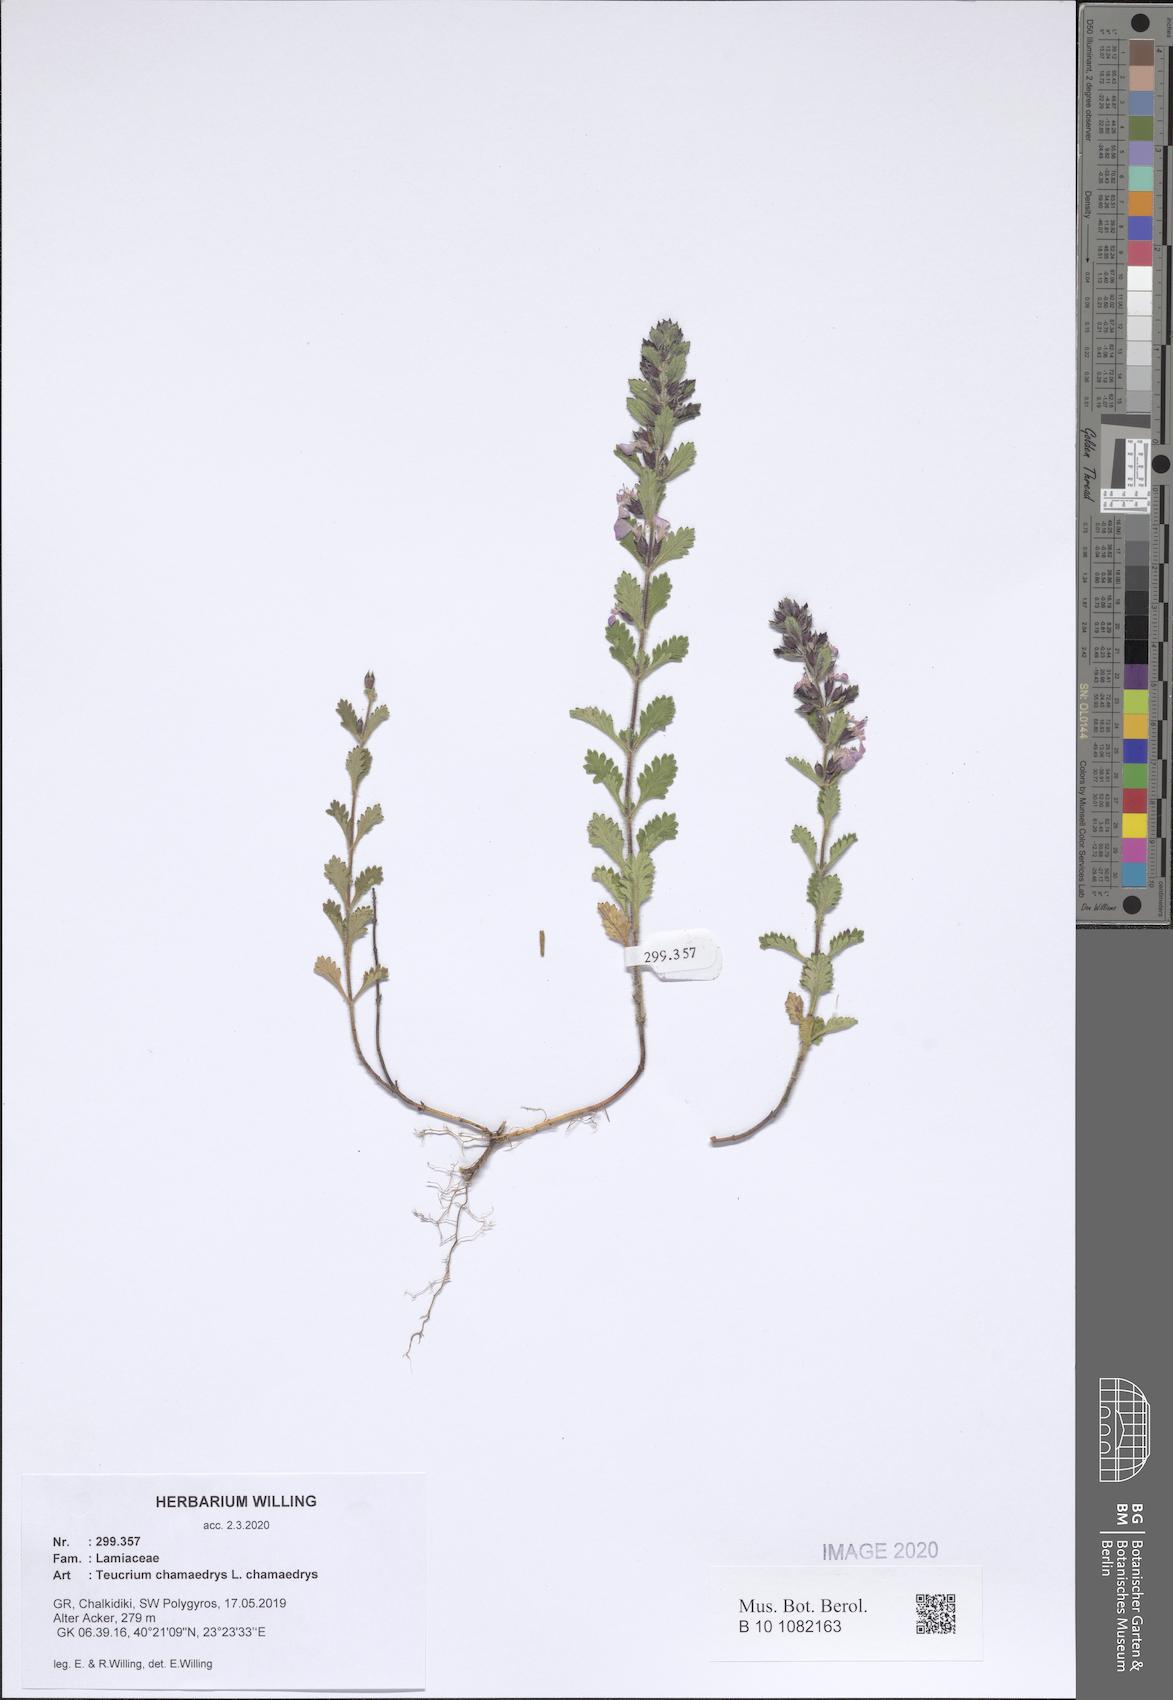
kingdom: Plantae
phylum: Tracheophyta
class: Magnoliopsida
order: Lamiales
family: Lamiaceae
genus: Teucrium
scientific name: Teucrium chamaedrys
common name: Wall germander
